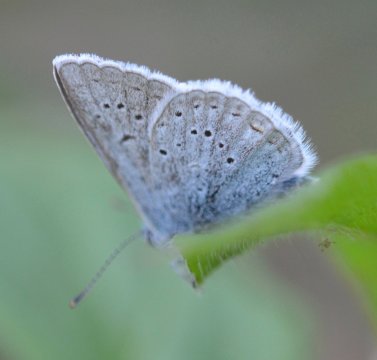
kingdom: Animalia
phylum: Arthropoda
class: Insecta
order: Lepidoptera
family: Lycaenidae
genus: Plebejus
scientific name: Plebejus saepiolus
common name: Greenish Blue
